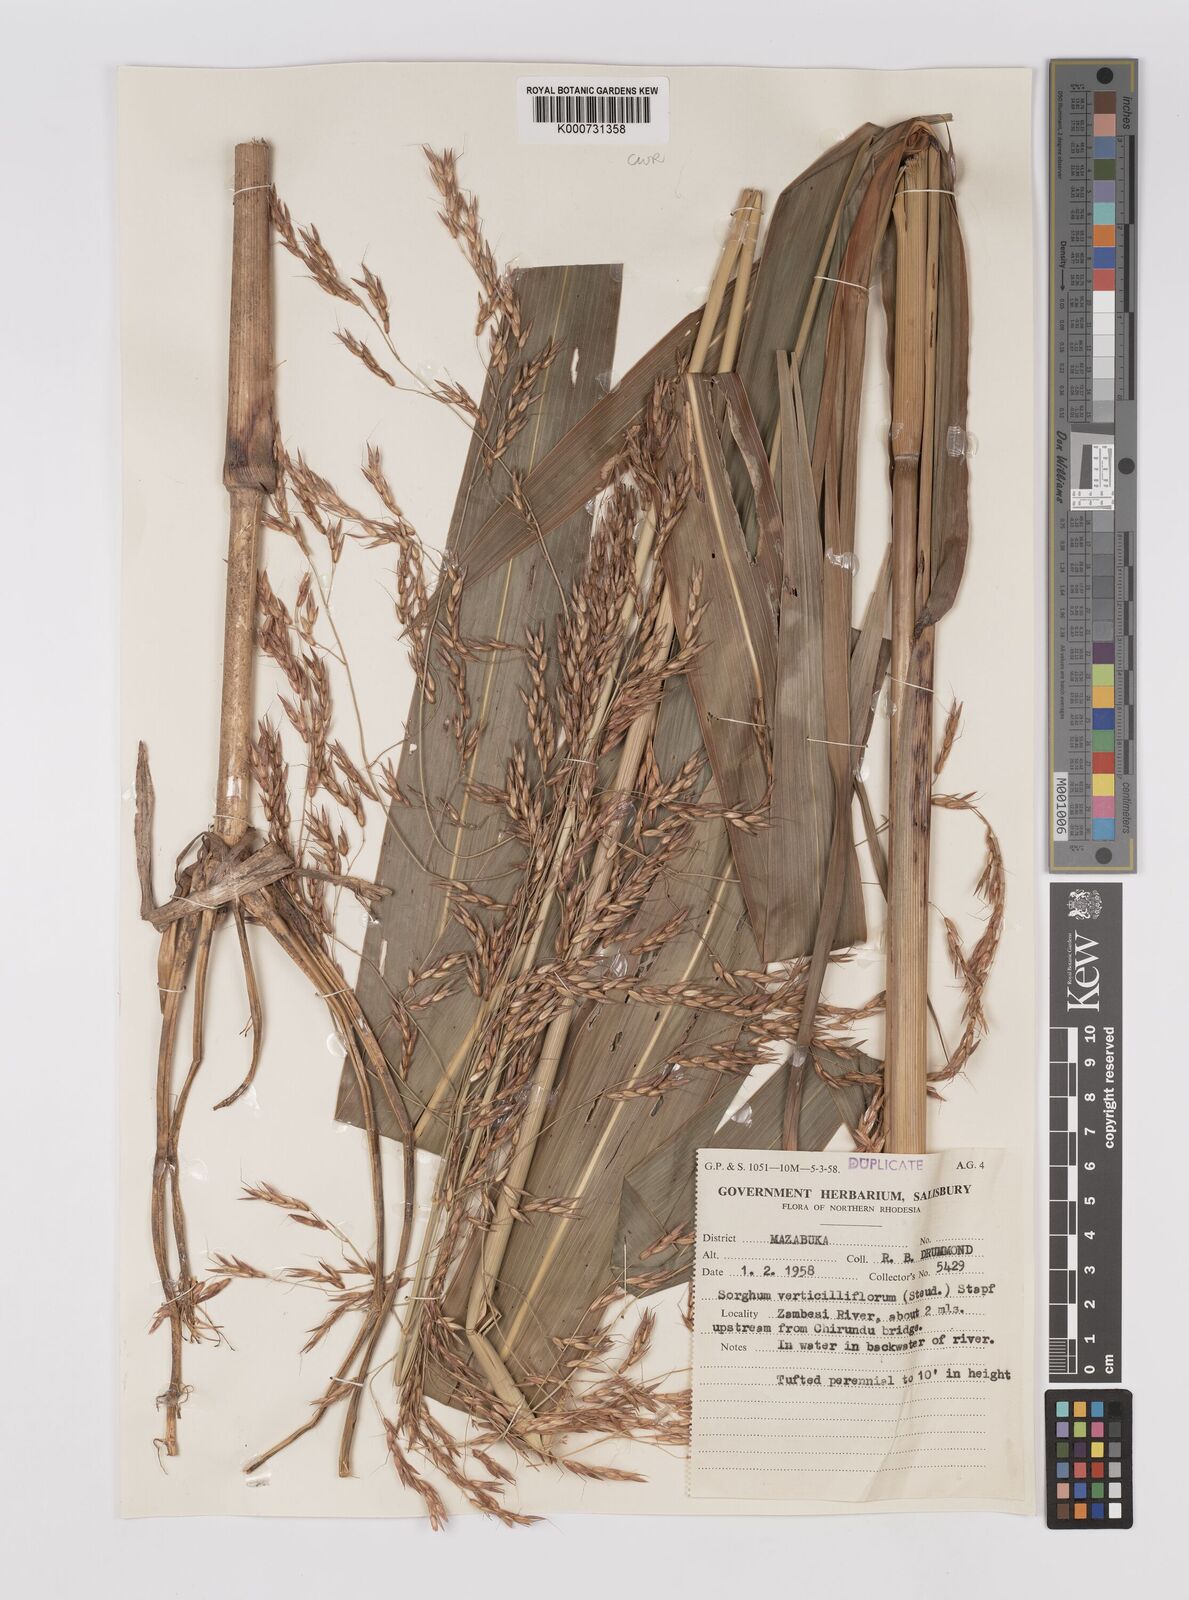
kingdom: Plantae
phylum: Tracheophyta
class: Liliopsida
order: Poales
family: Poaceae
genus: Sorghum
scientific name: Sorghum arundinaceum
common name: Sorghum
